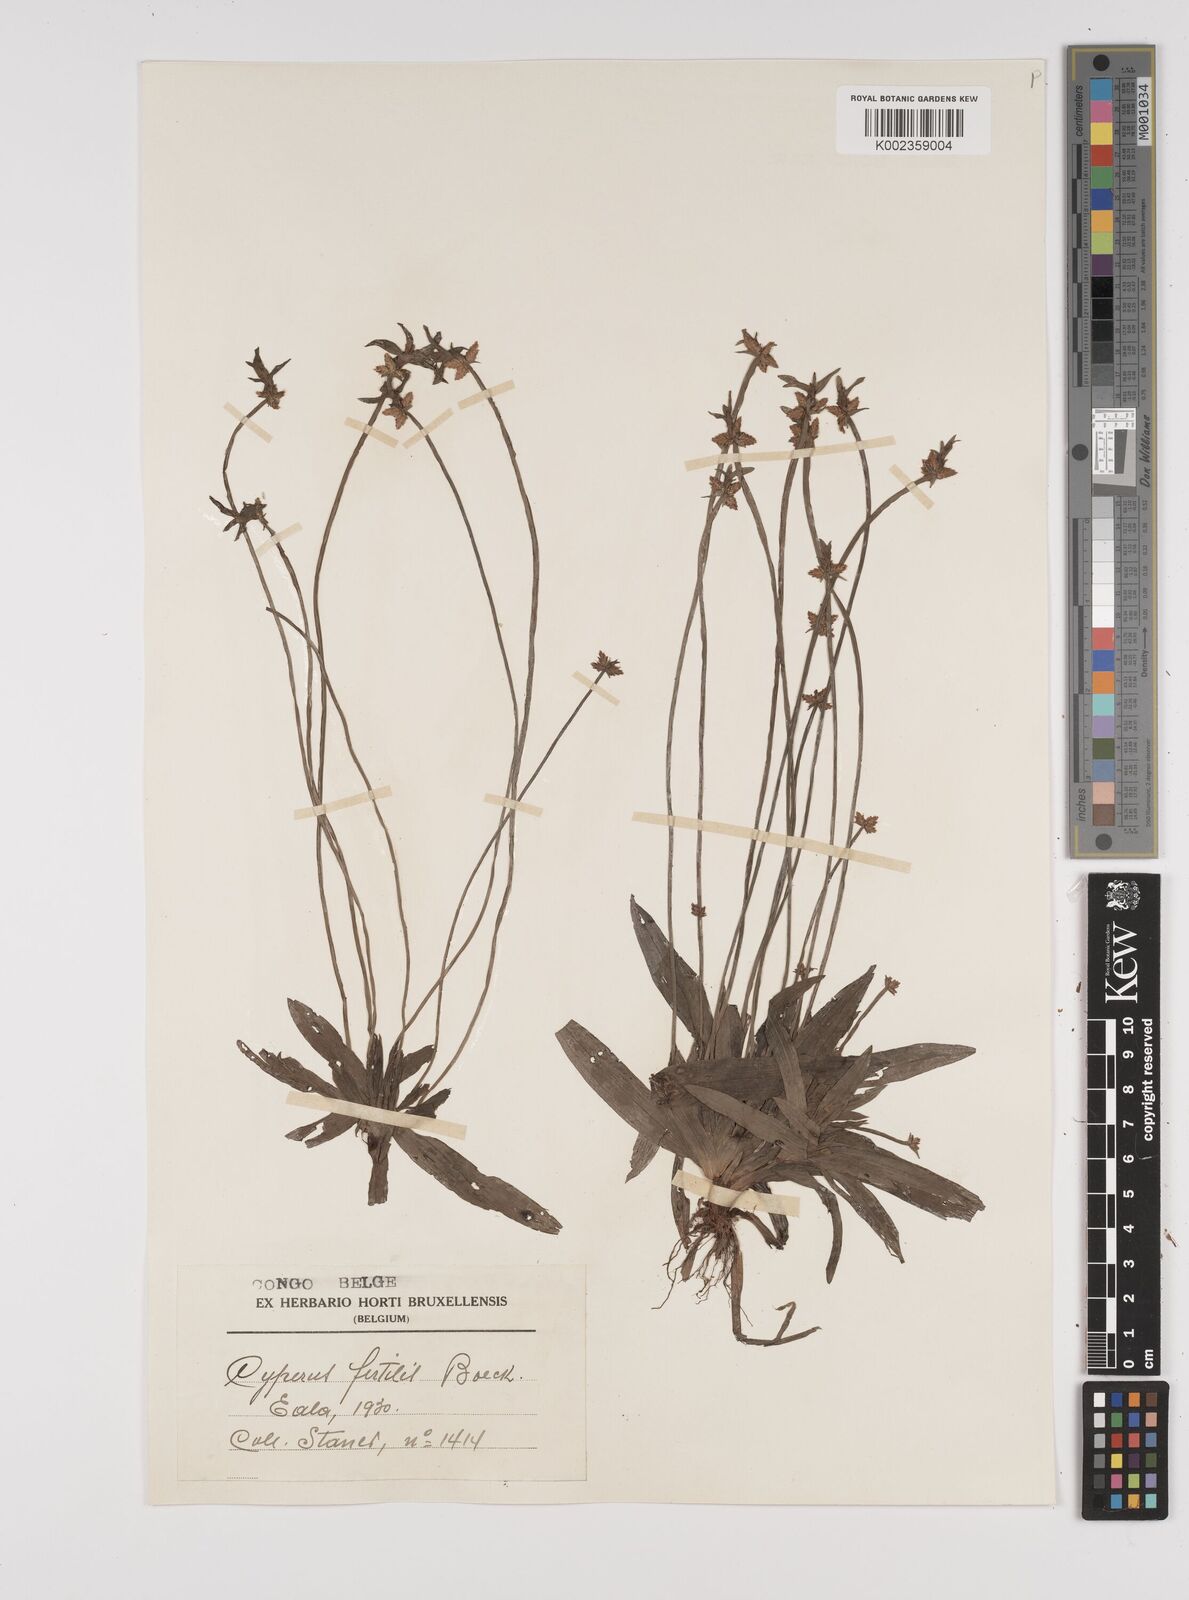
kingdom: Plantae
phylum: Tracheophyta
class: Liliopsida
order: Poales
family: Cyperaceae
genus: Cyperus
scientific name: Cyperus fertilis
